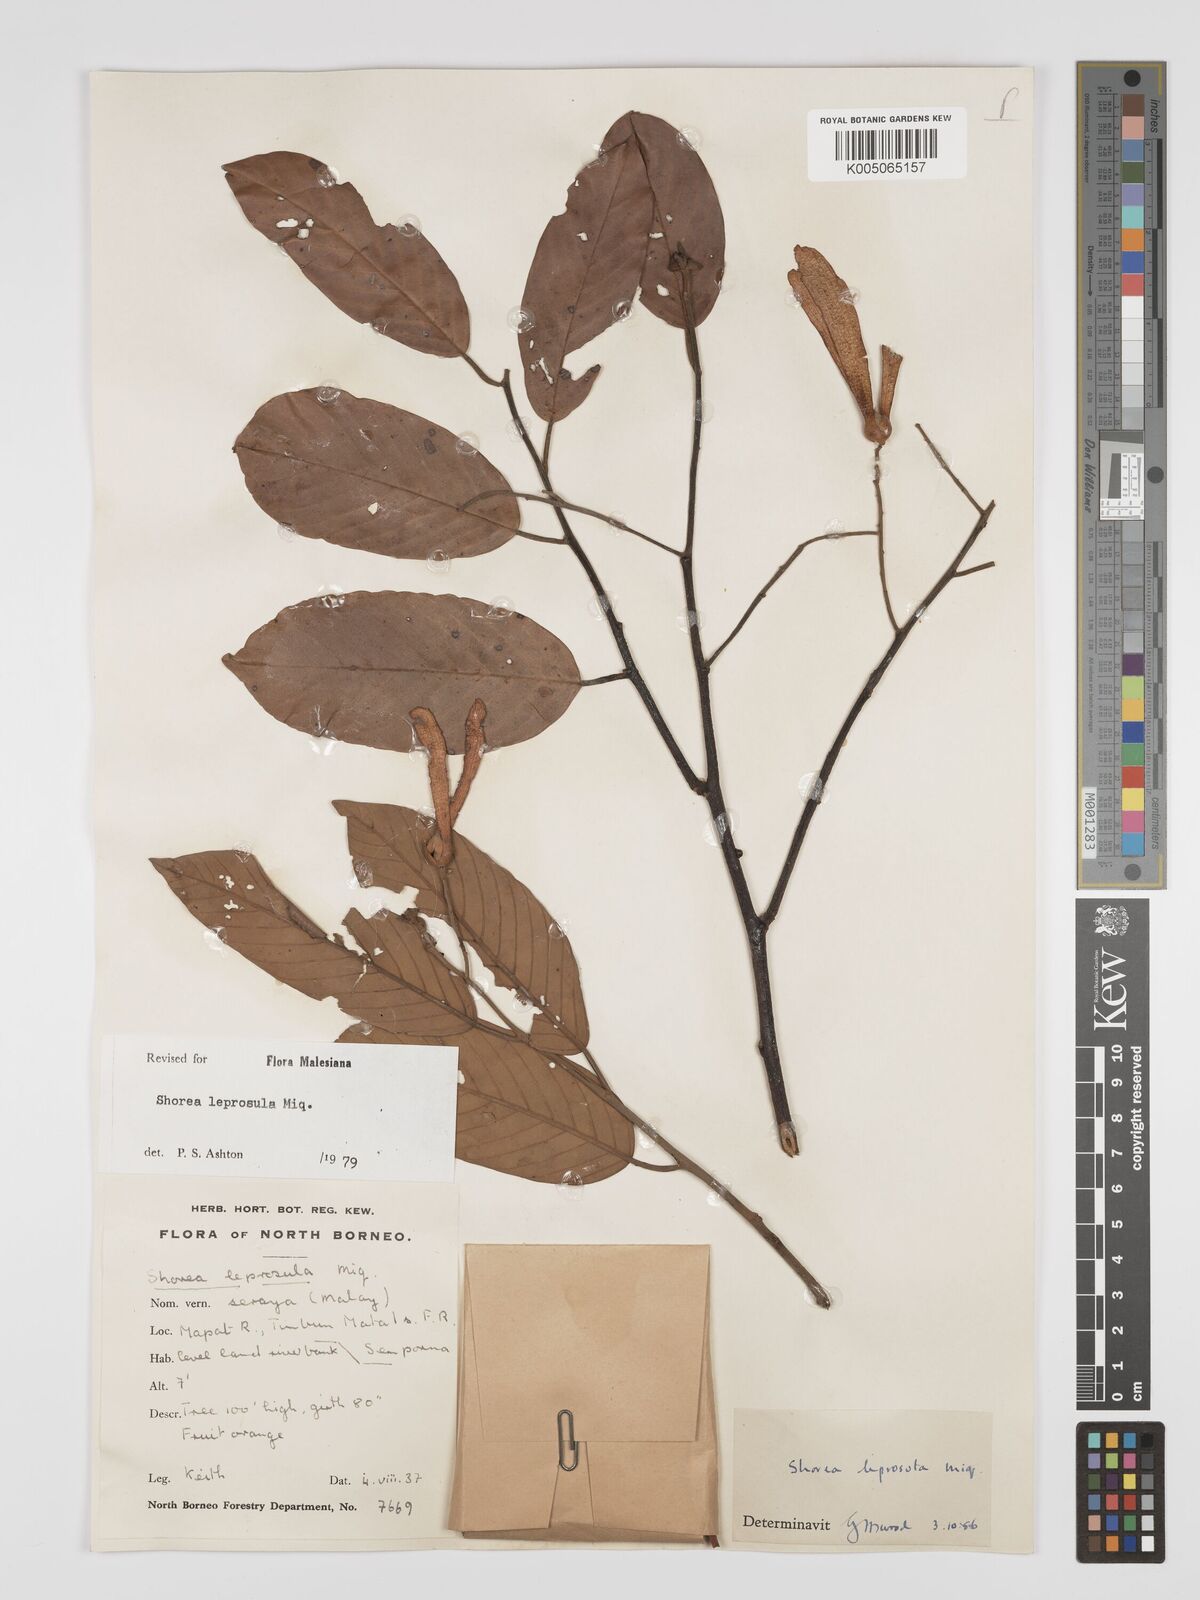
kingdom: Plantae
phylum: Tracheophyta
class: Magnoliopsida
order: Malvales
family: Dipterocarpaceae
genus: Shorea
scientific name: Shorea leprosula
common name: Light red meranti
